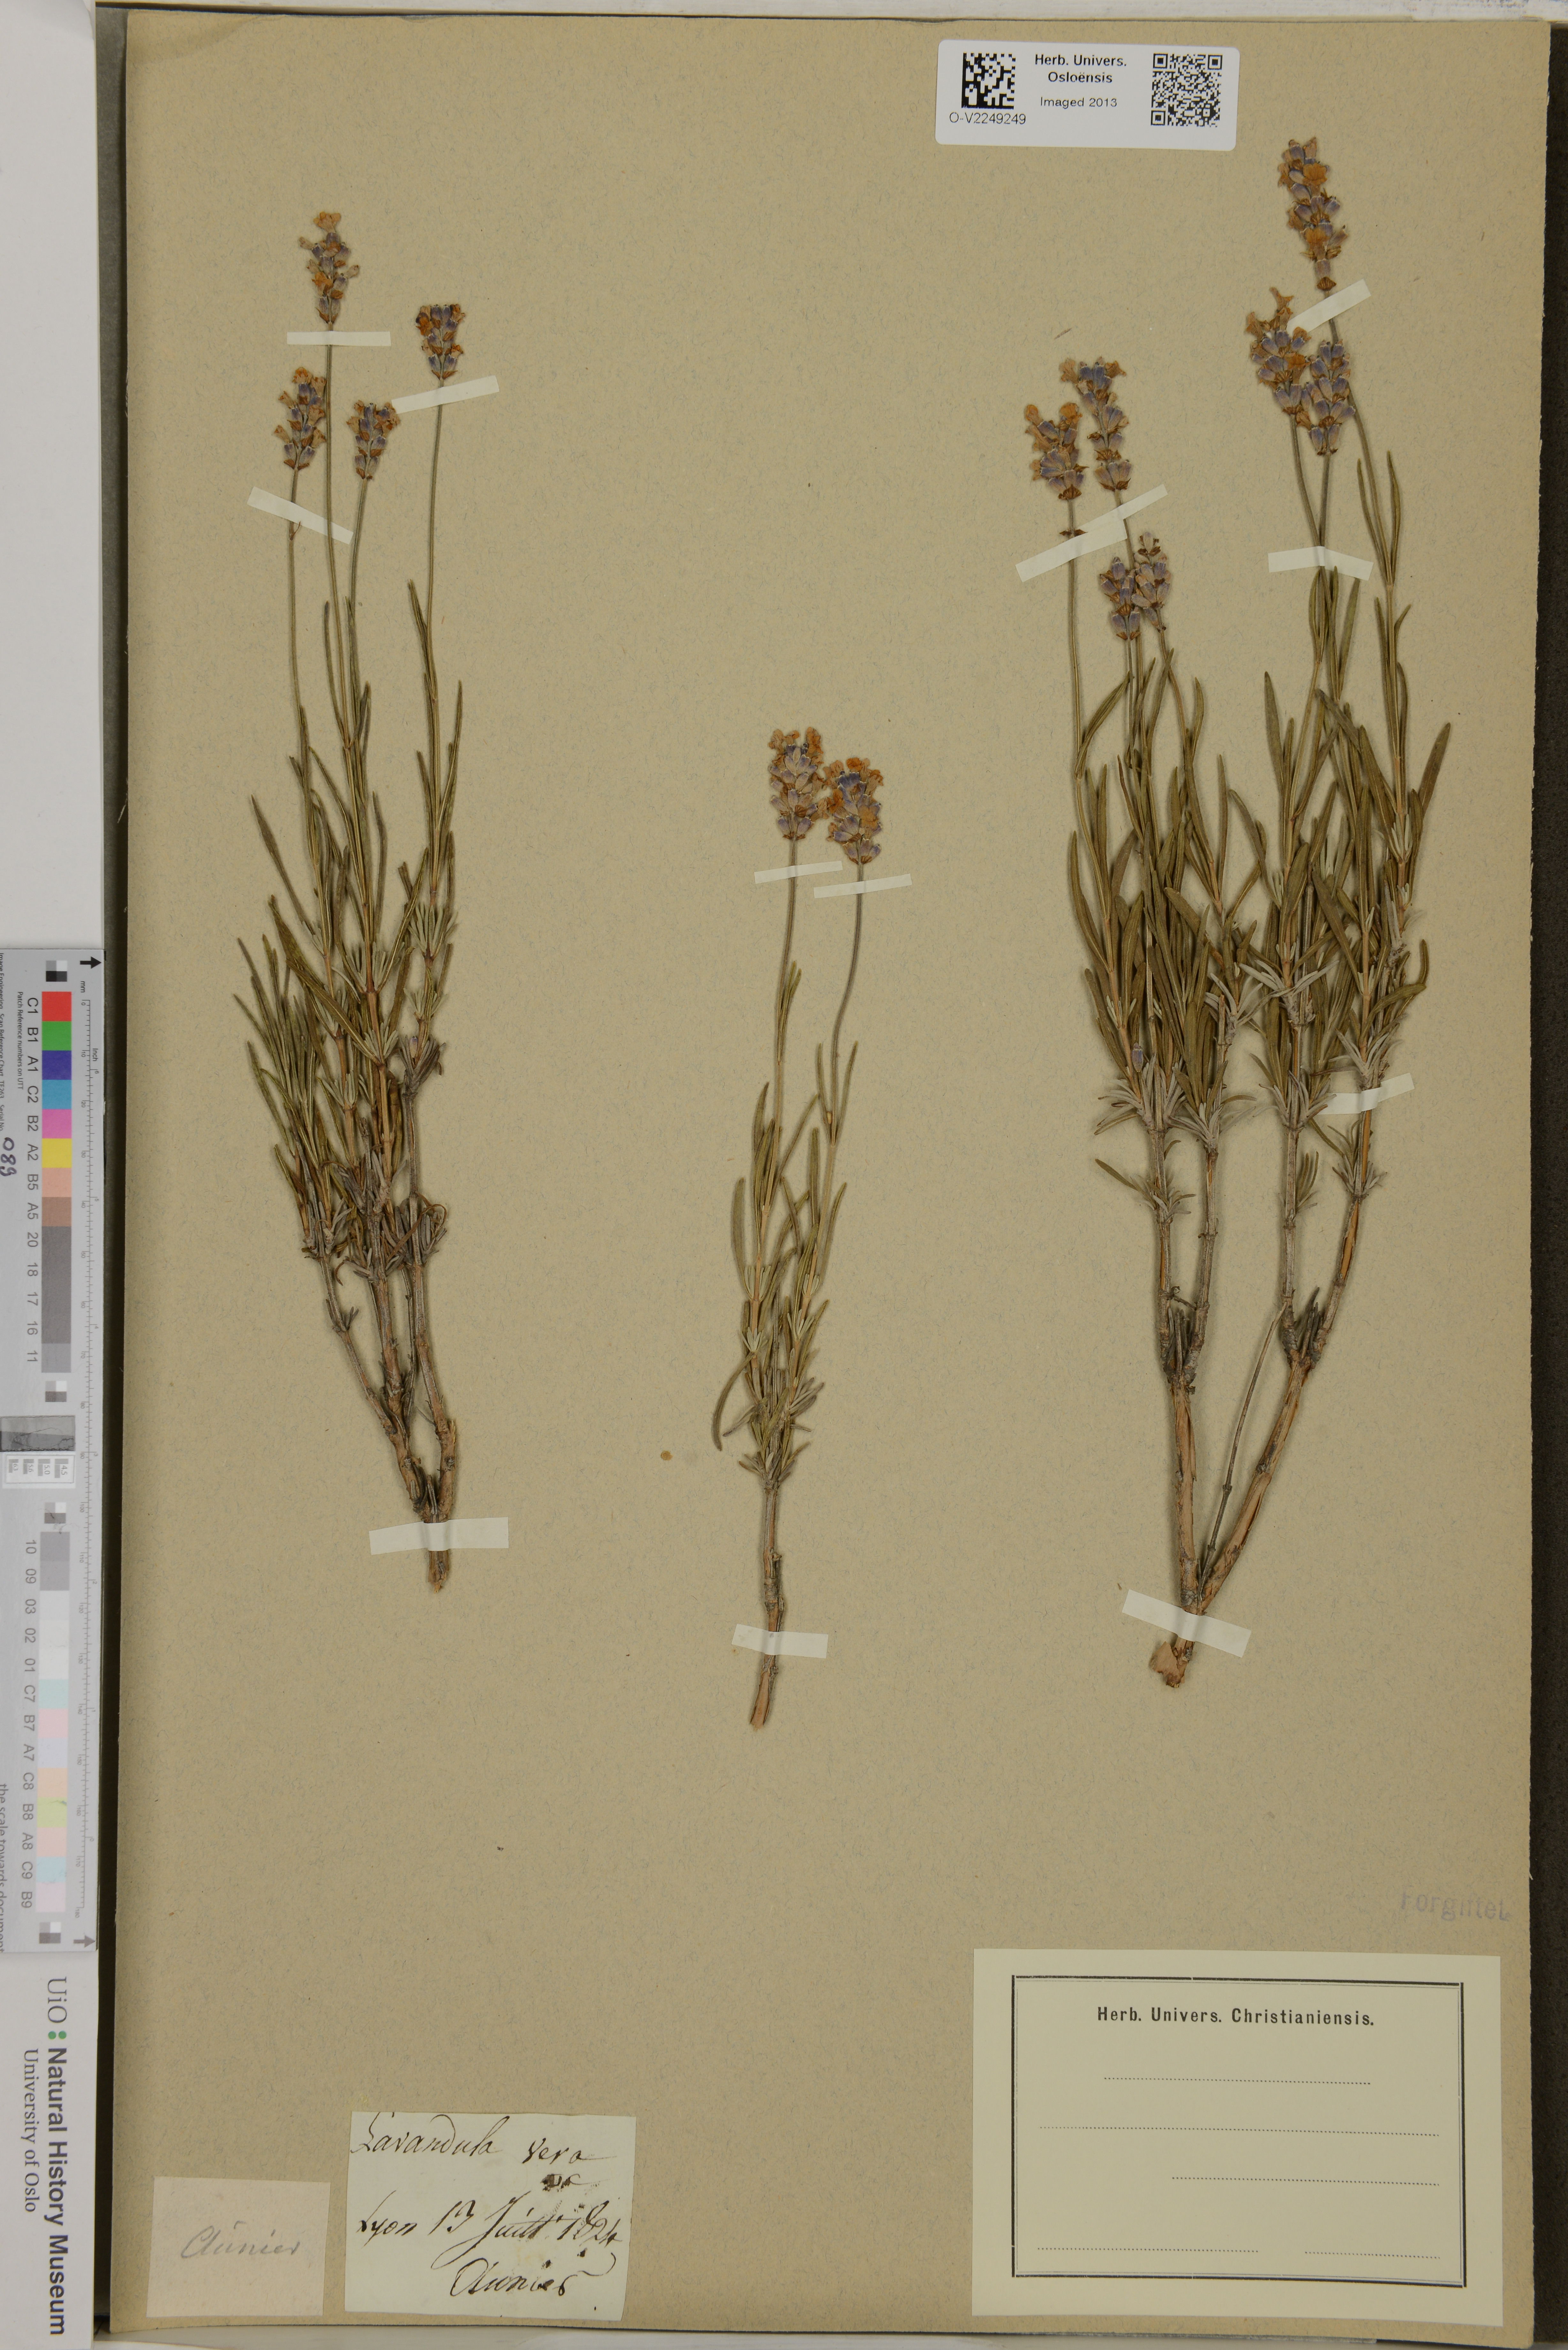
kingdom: Plantae
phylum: Tracheophyta
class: Magnoliopsida
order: Lamiales
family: Lamiaceae
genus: Lavandula
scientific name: Lavandula angustifolia
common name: Garden lavender
